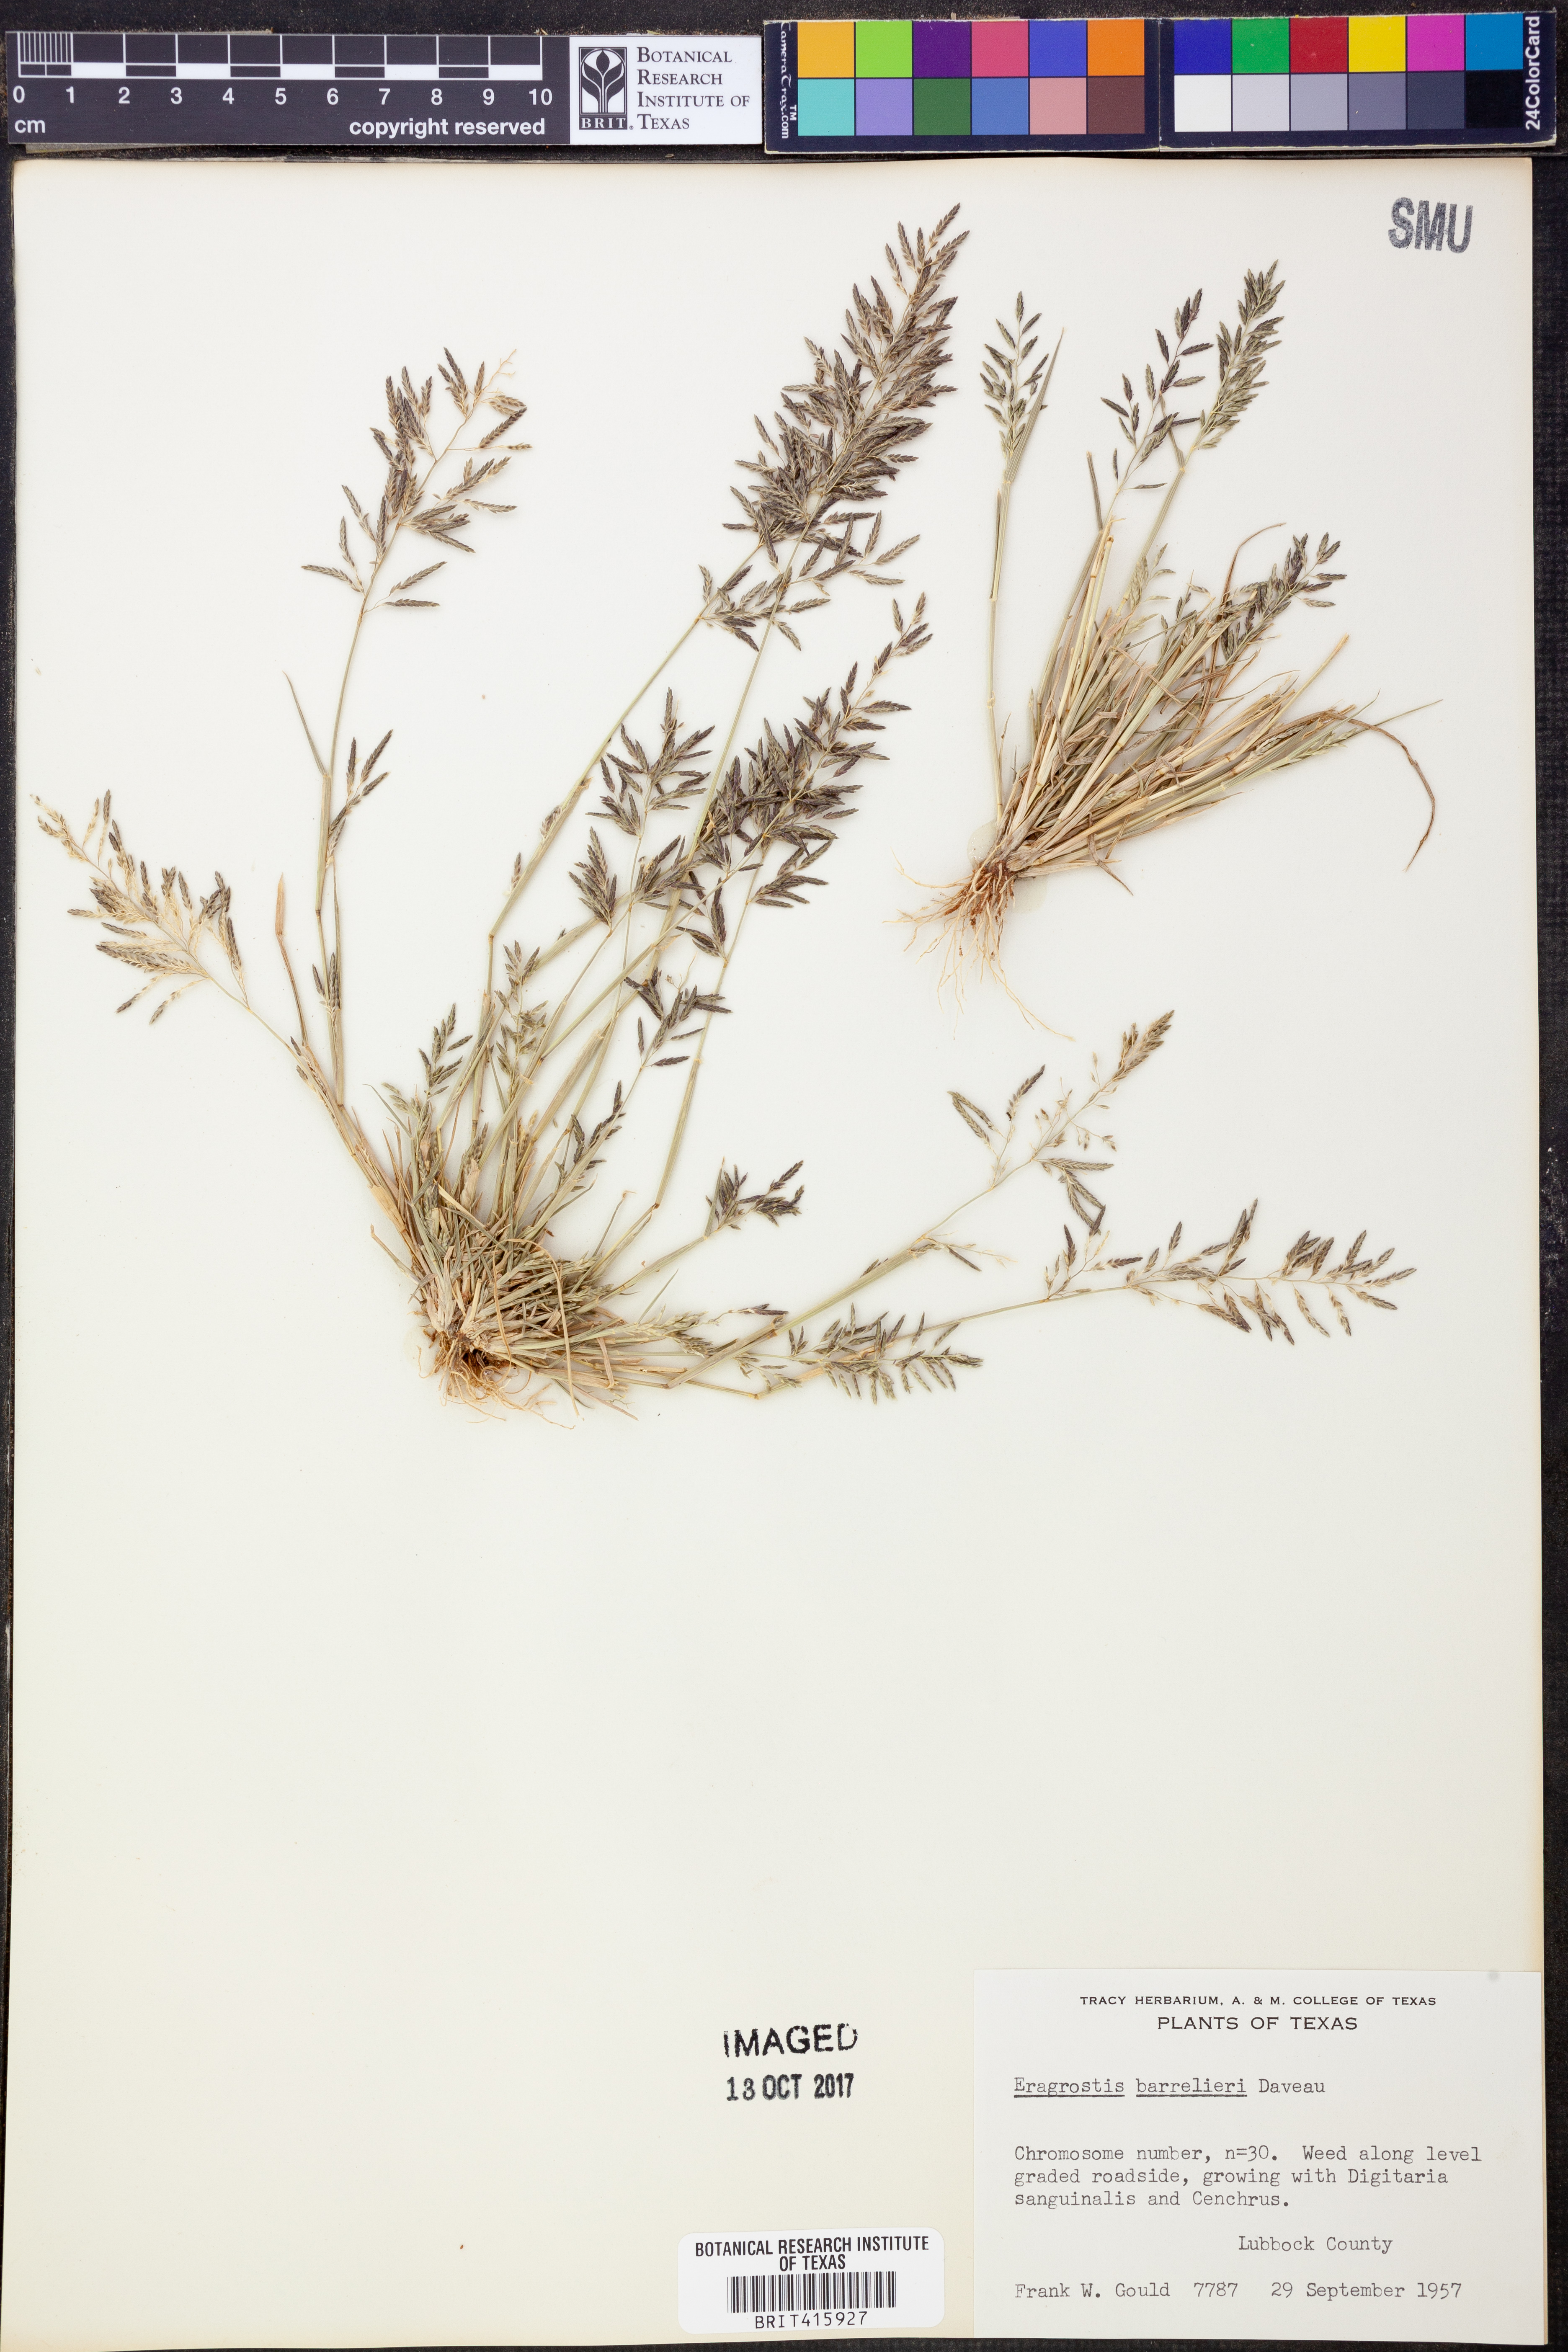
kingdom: Plantae
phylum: Tracheophyta
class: Liliopsida
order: Poales
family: Poaceae
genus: Eragrostis
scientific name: Eragrostis barrelieri
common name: Mediterranean lovegrass
